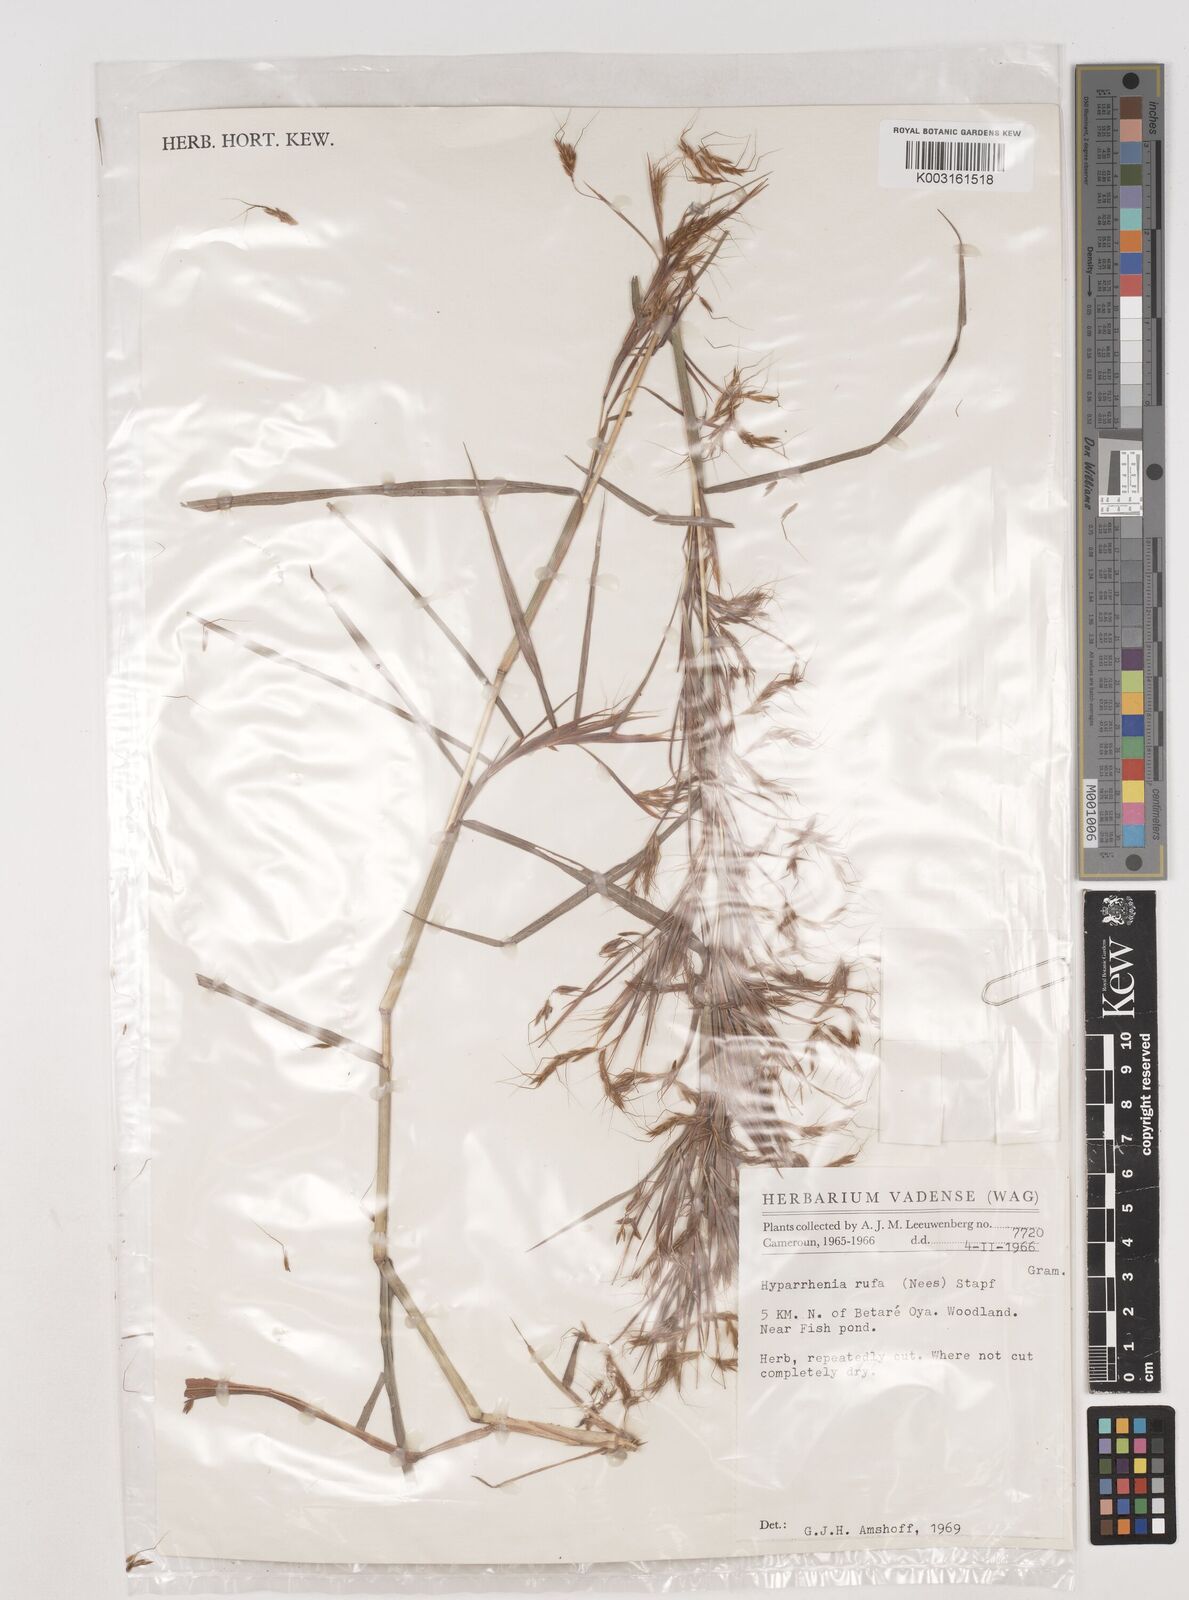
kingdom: Plantae
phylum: Tracheophyta
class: Liliopsida
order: Poales
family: Poaceae
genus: Hyparrhenia
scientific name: Hyparrhenia rufa
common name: Jaraguagrass
